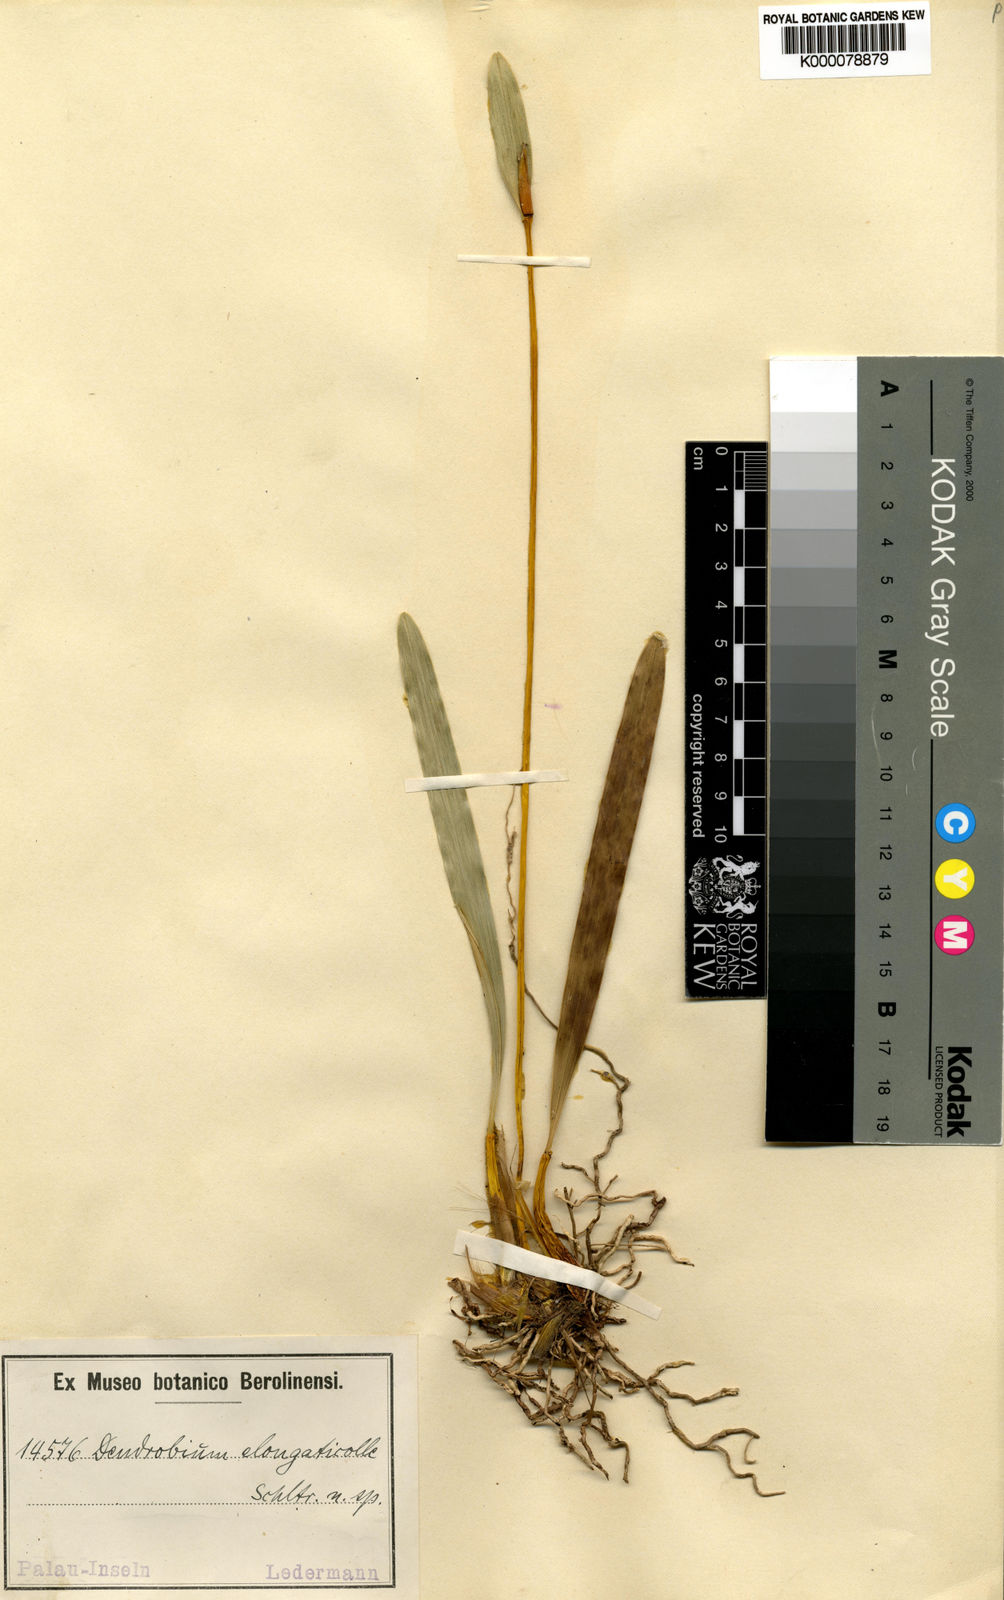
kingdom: Plantae
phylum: Tracheophyta
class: Liliopsida
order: Asparagales
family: Orchidaceae
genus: Dendrobium
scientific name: Dendrobium elongaticolle
